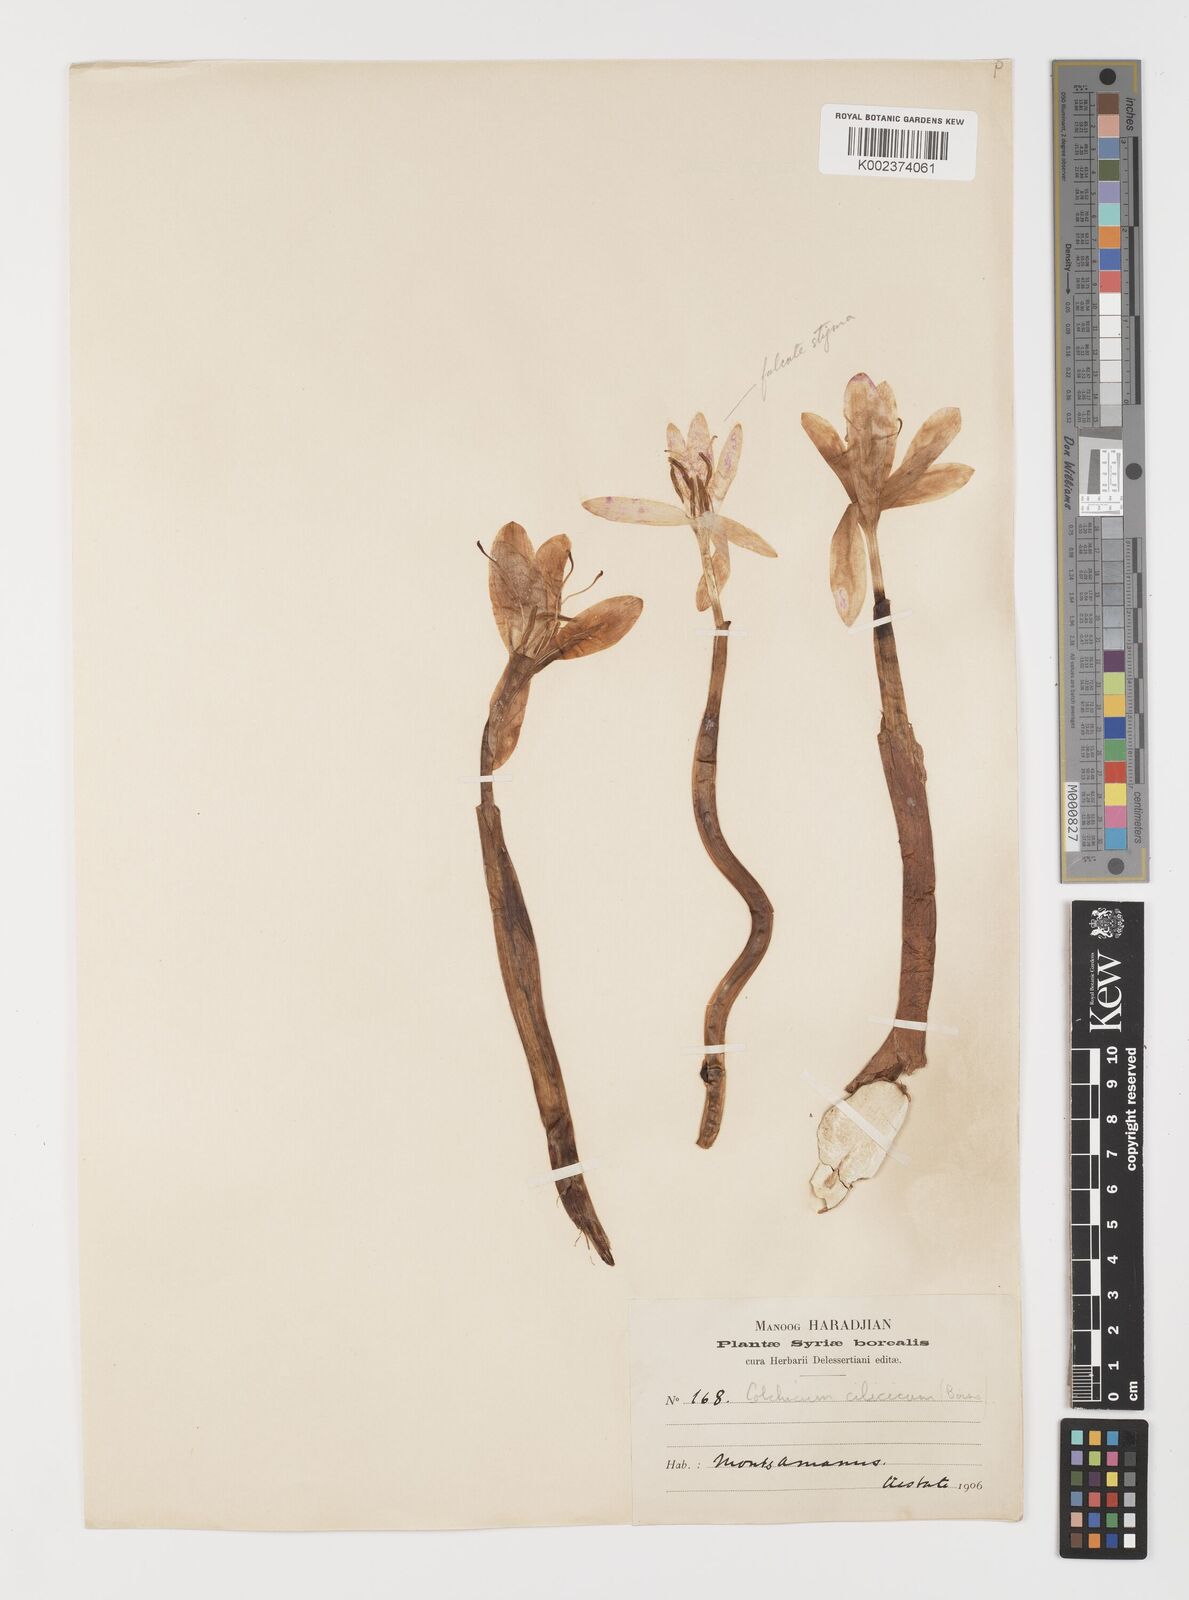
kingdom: Plantae
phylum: Tracheophyta
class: Liliopsida
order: Liliales
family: Colchicaceae
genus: Colchicum
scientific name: Colchicum balansae
